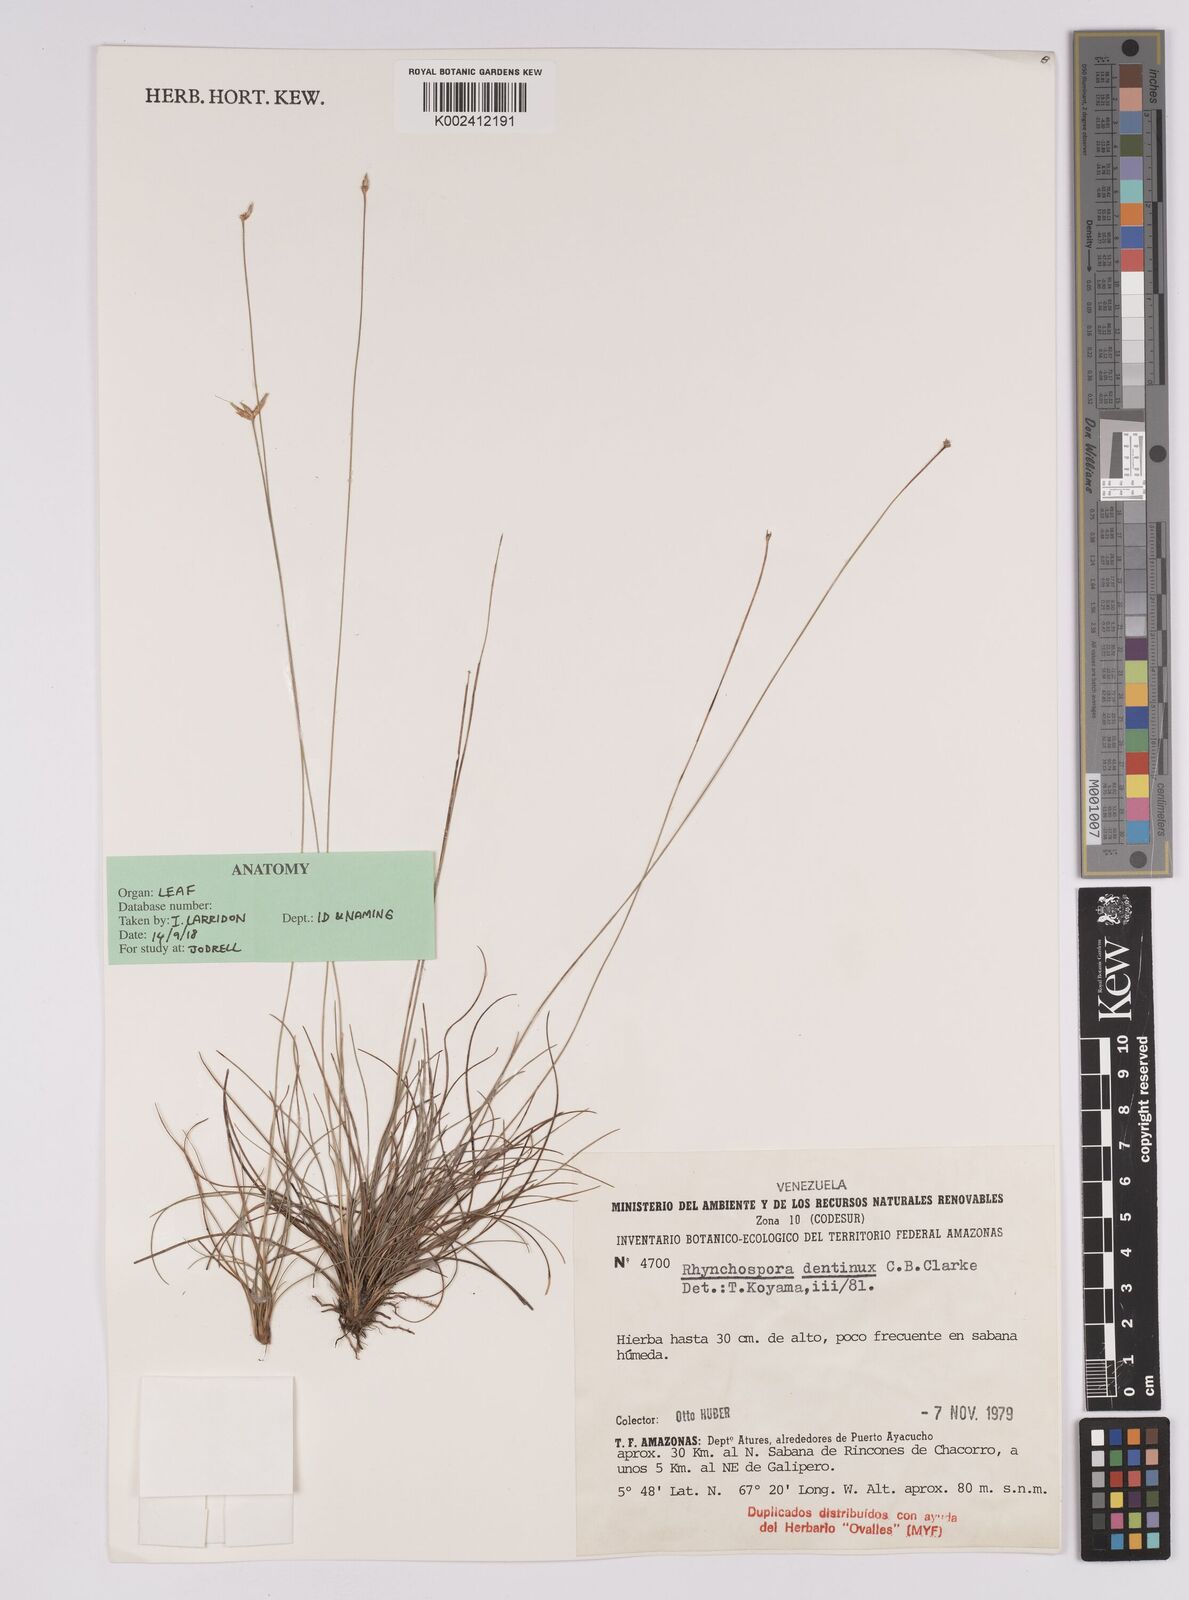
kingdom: Plantae
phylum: Tracheophyta
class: Liliopsida
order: Poales
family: Cyperaceae
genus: Rhynchospora
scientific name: Rhynchospora dentinux
